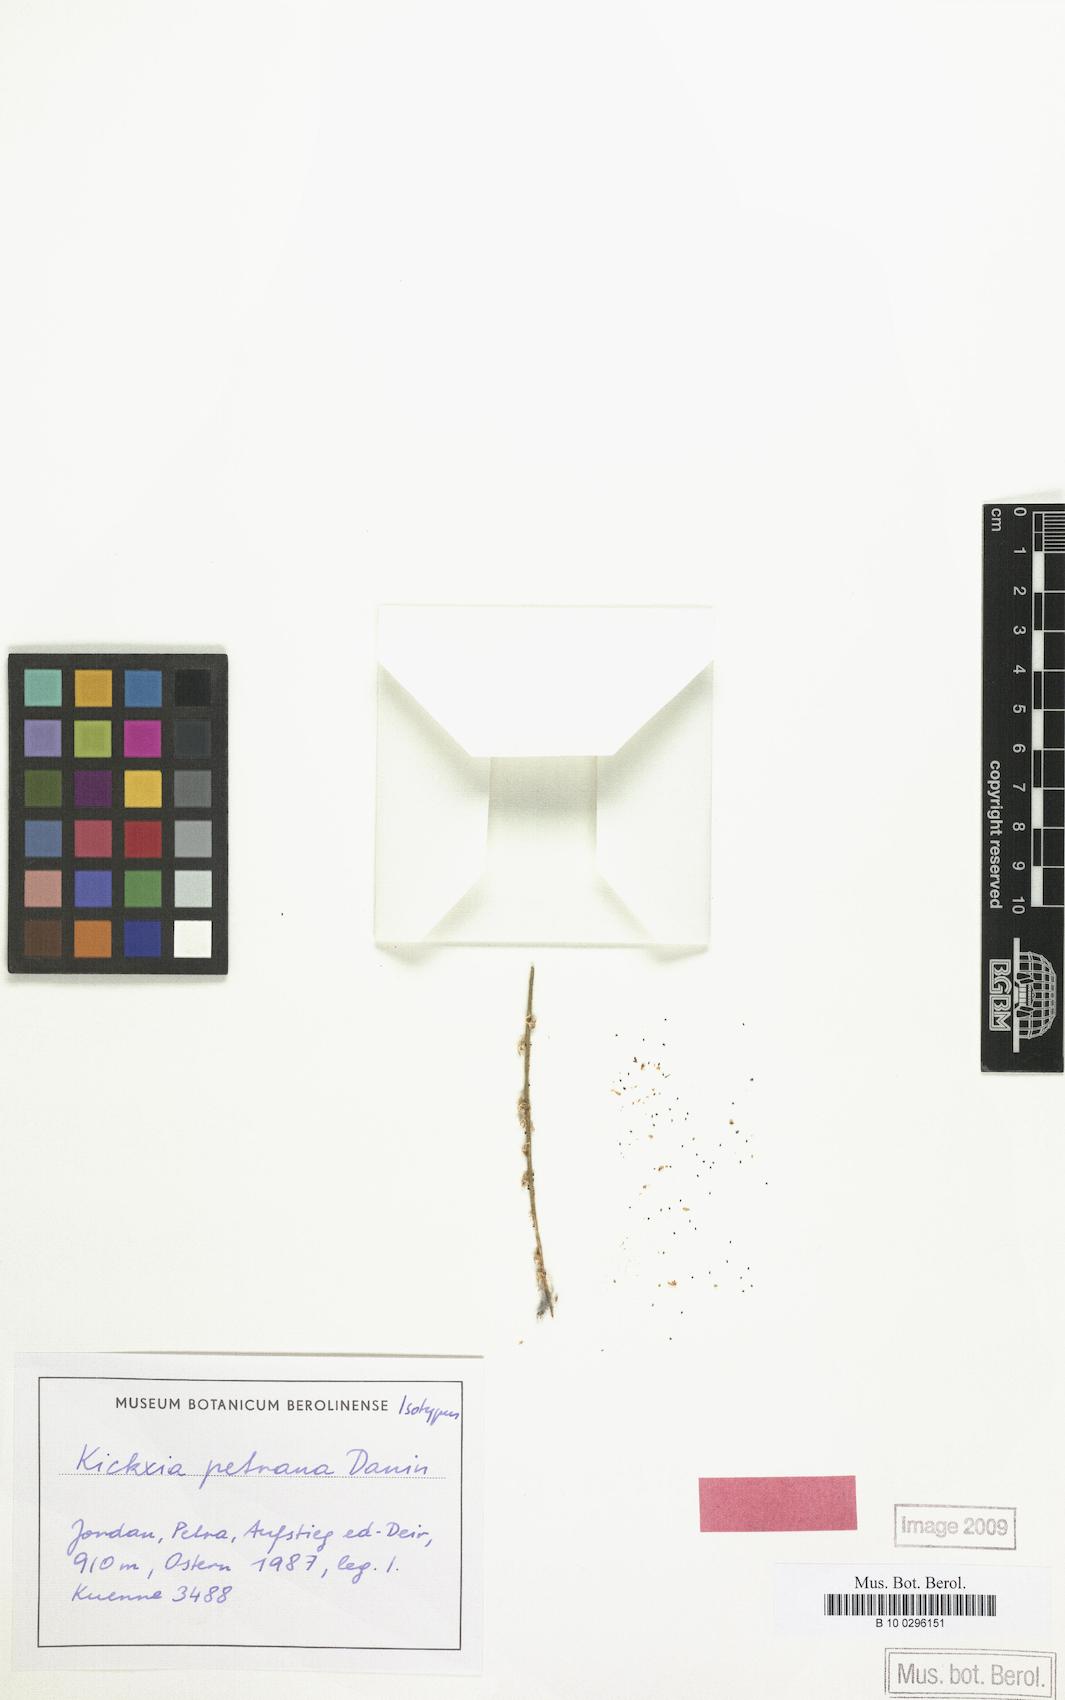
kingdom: Plantae
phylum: Tracheophyta
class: Magnoliopsida
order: Lamiales
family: Plantaginaceae
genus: Nanorrhinum
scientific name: Nanorrhinum petranum
